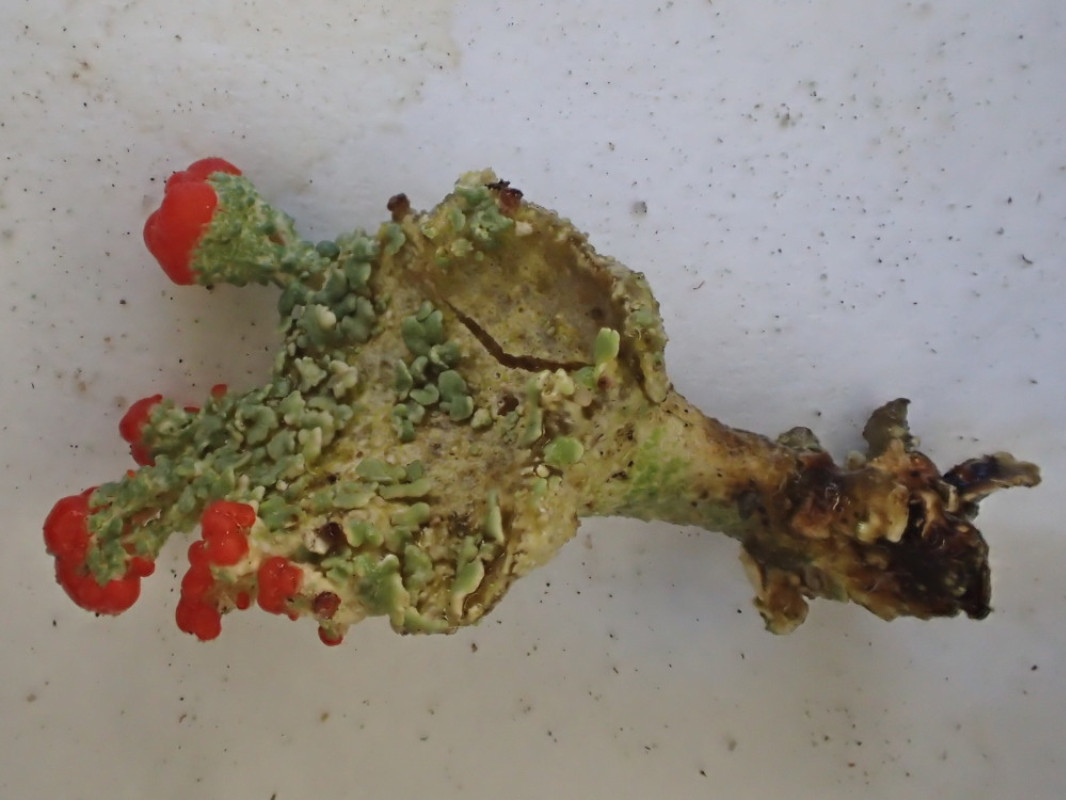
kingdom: Fungi
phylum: Ascomycota
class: Lecanoromycetes
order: Lecanorales
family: Cladoniaceae
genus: Cladonia
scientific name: Cladonia borealis
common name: nordlig bægerlav
